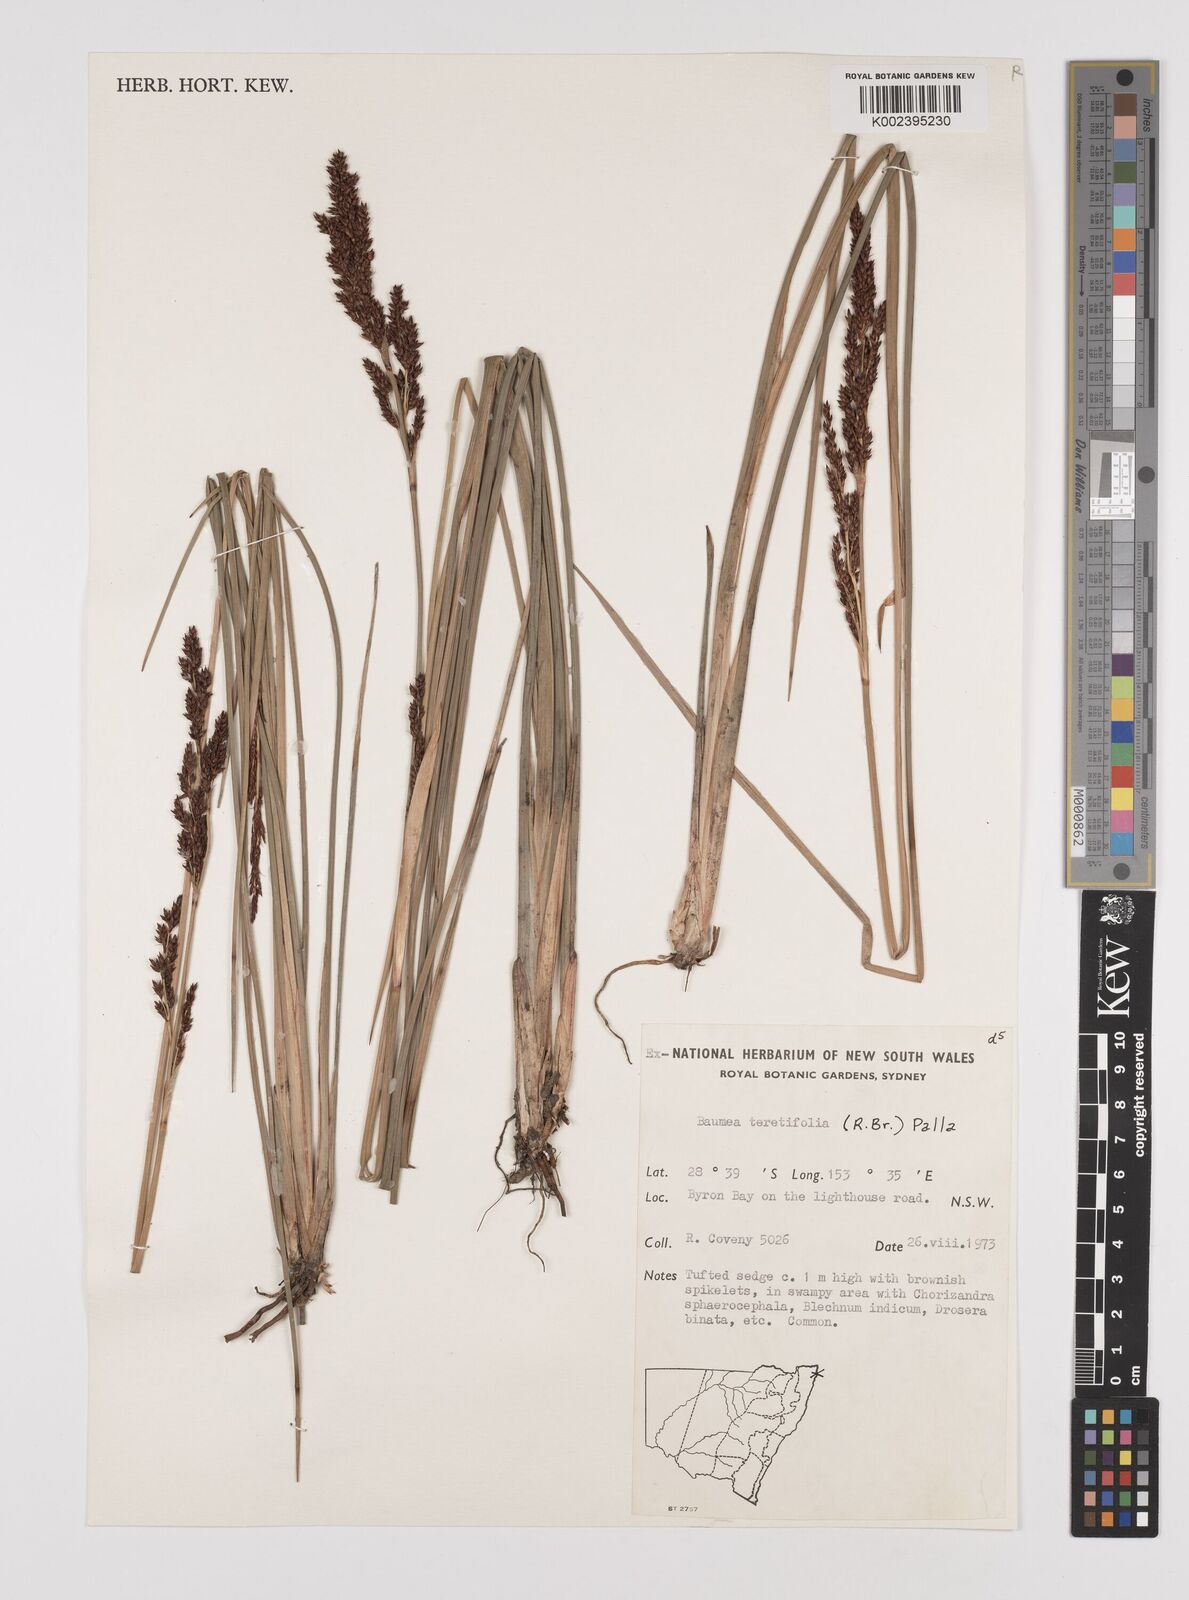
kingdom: Plantae
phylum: Tracheophyta
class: Liliopsida
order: Poales
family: Cyperaceae
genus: Machaerina
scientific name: Machaerina teretifolia
